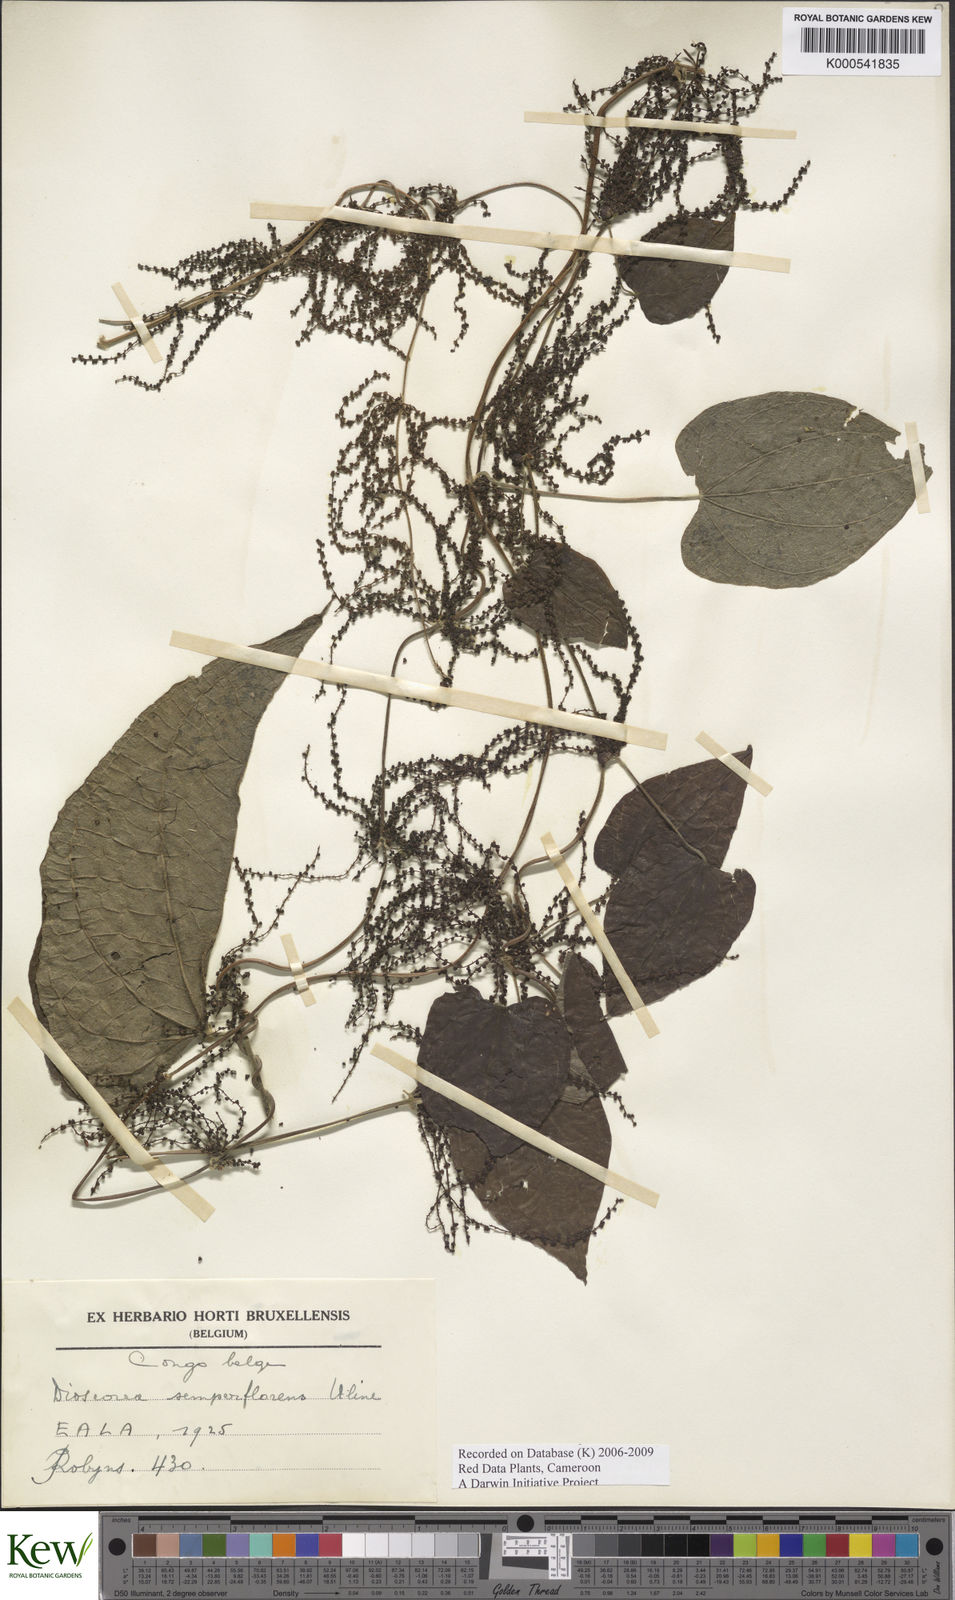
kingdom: Plantae
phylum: Tracheophyta
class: Liliopsida
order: Dioscoreales
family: Dioscoreaceae
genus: Dioscorea
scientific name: Dioscorea semperflorens
